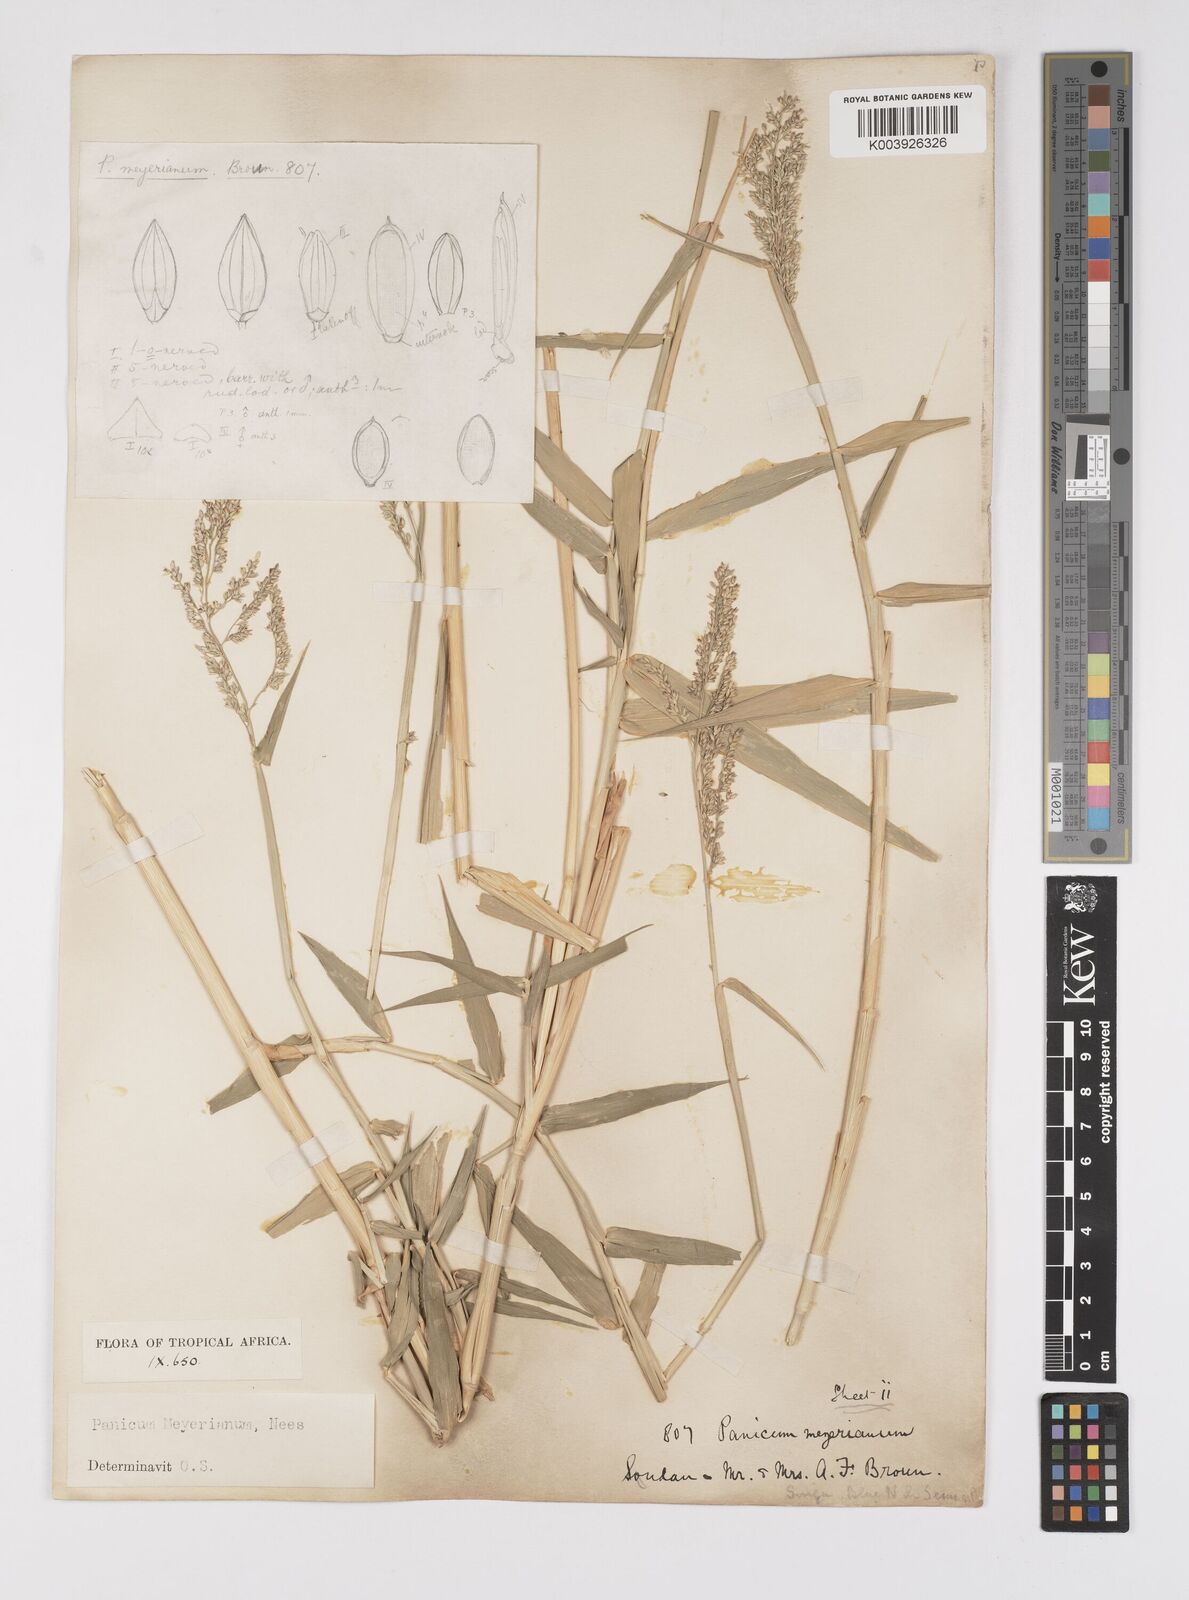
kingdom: Plantae
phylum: Tracheophyta
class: Liliopsida
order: Poales
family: Poaceae
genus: Eriochloa
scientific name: Eriochloa meyeriana
